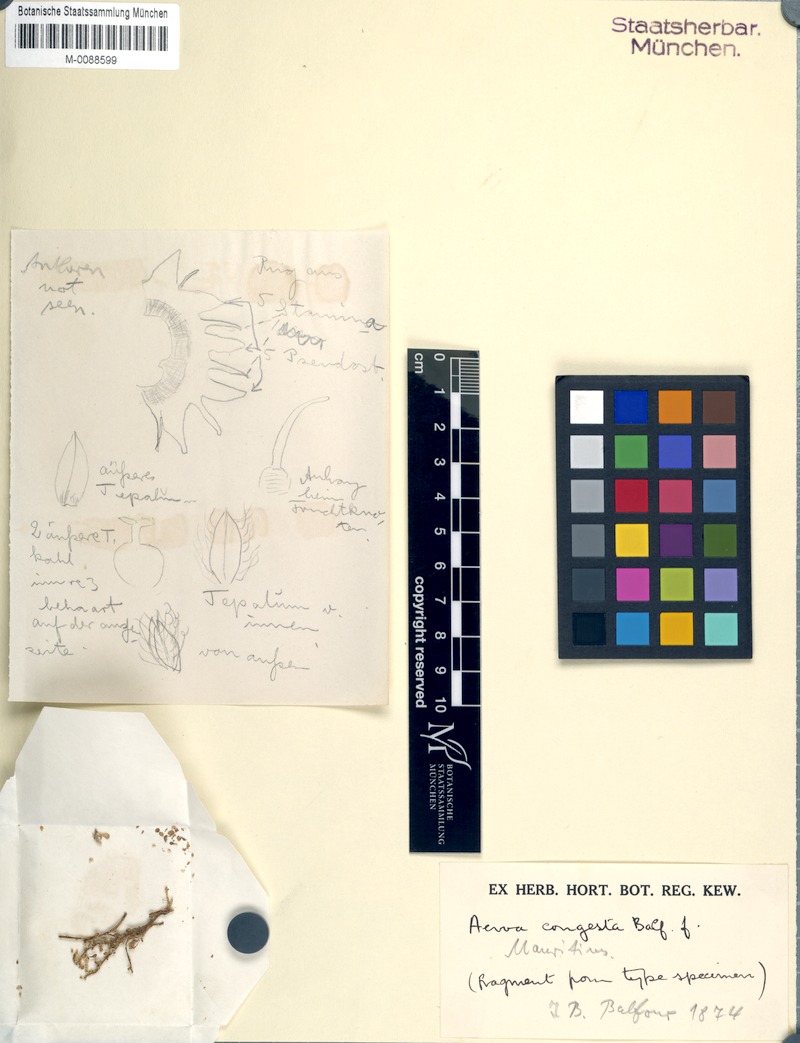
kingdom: Plantae
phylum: Tracheophyta
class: Magnoliopsida
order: Caryophyllales
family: Amaranthaceae
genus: Ouret
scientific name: Ouret congesta
